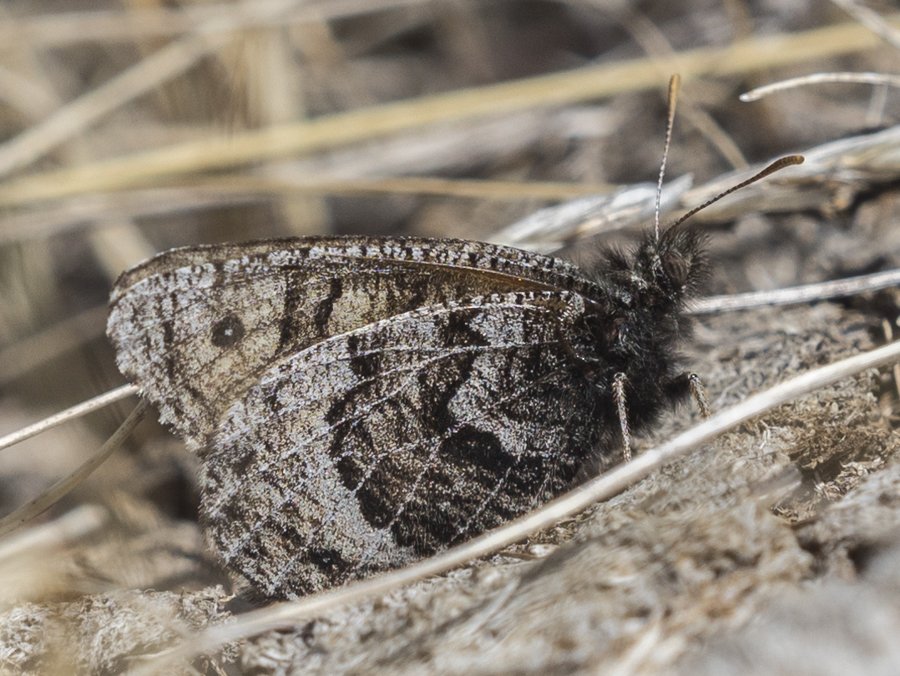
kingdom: Animalia
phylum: Arthropoda
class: Insecta
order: Lepidoptera
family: Nymphalidae
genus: Oeneis
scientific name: Oeneis alberta
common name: Alberta Arctic
